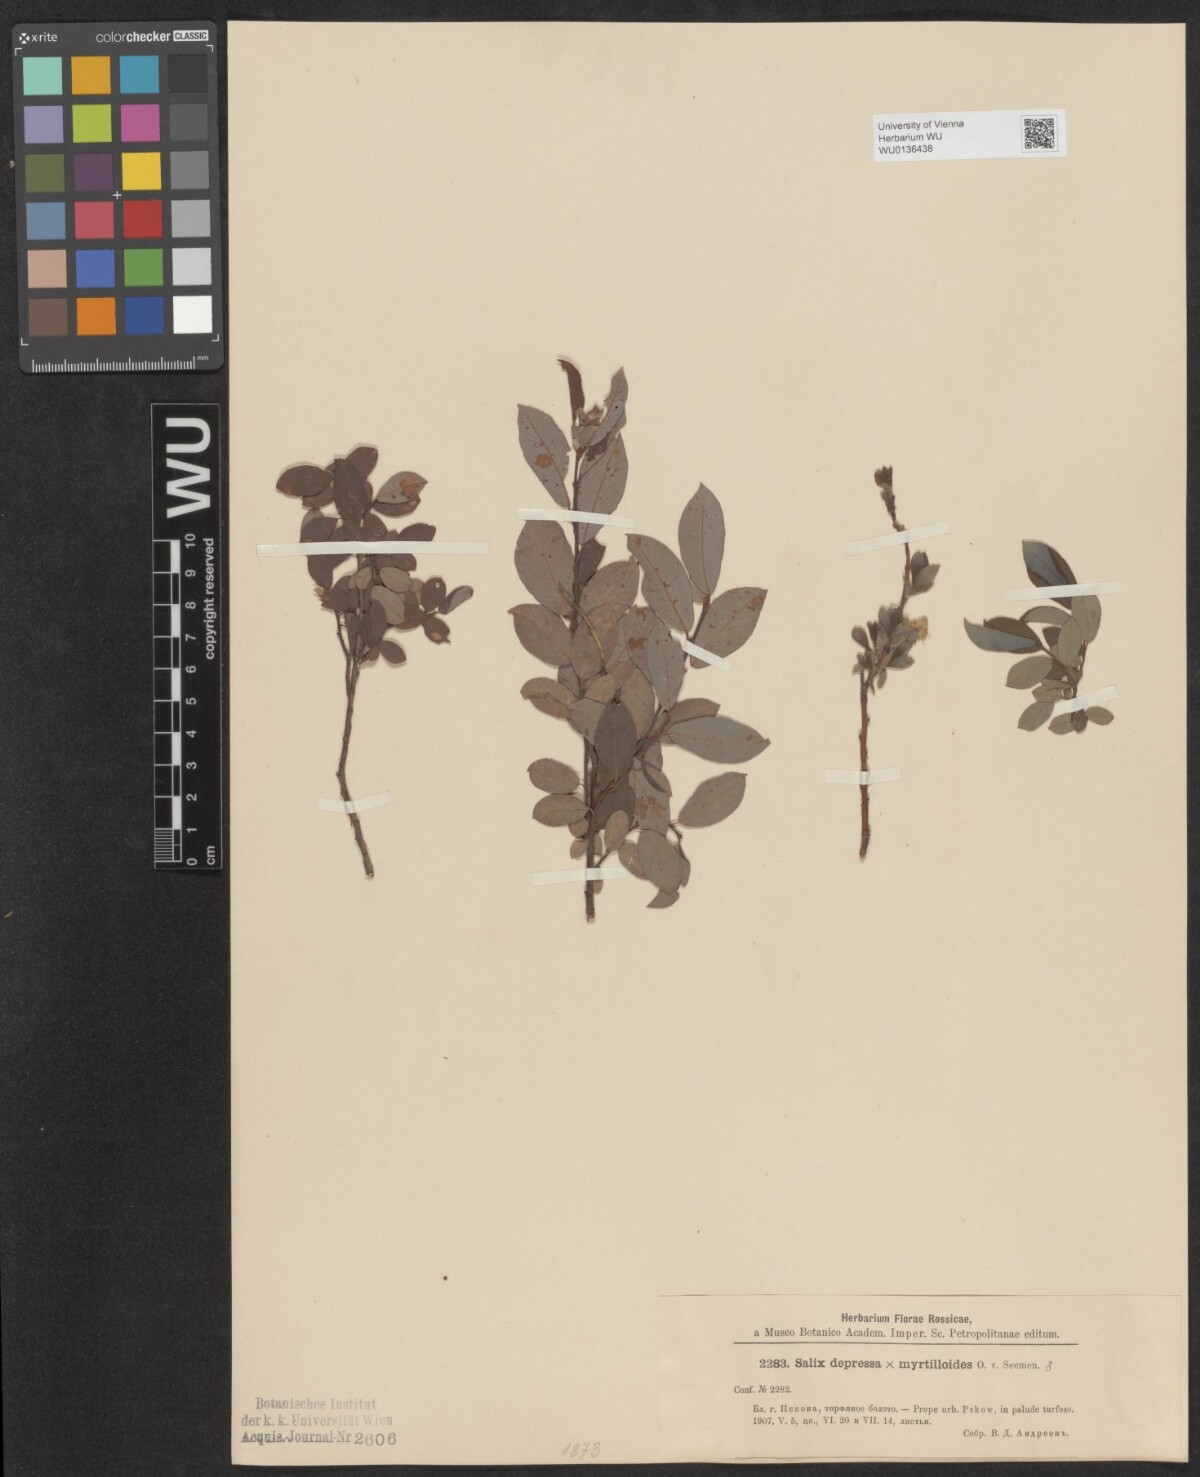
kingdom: Plantae
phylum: Tracheophyta
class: Magnoliopsida
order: Malpighiales
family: Salicaceae
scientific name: Salicaceae
